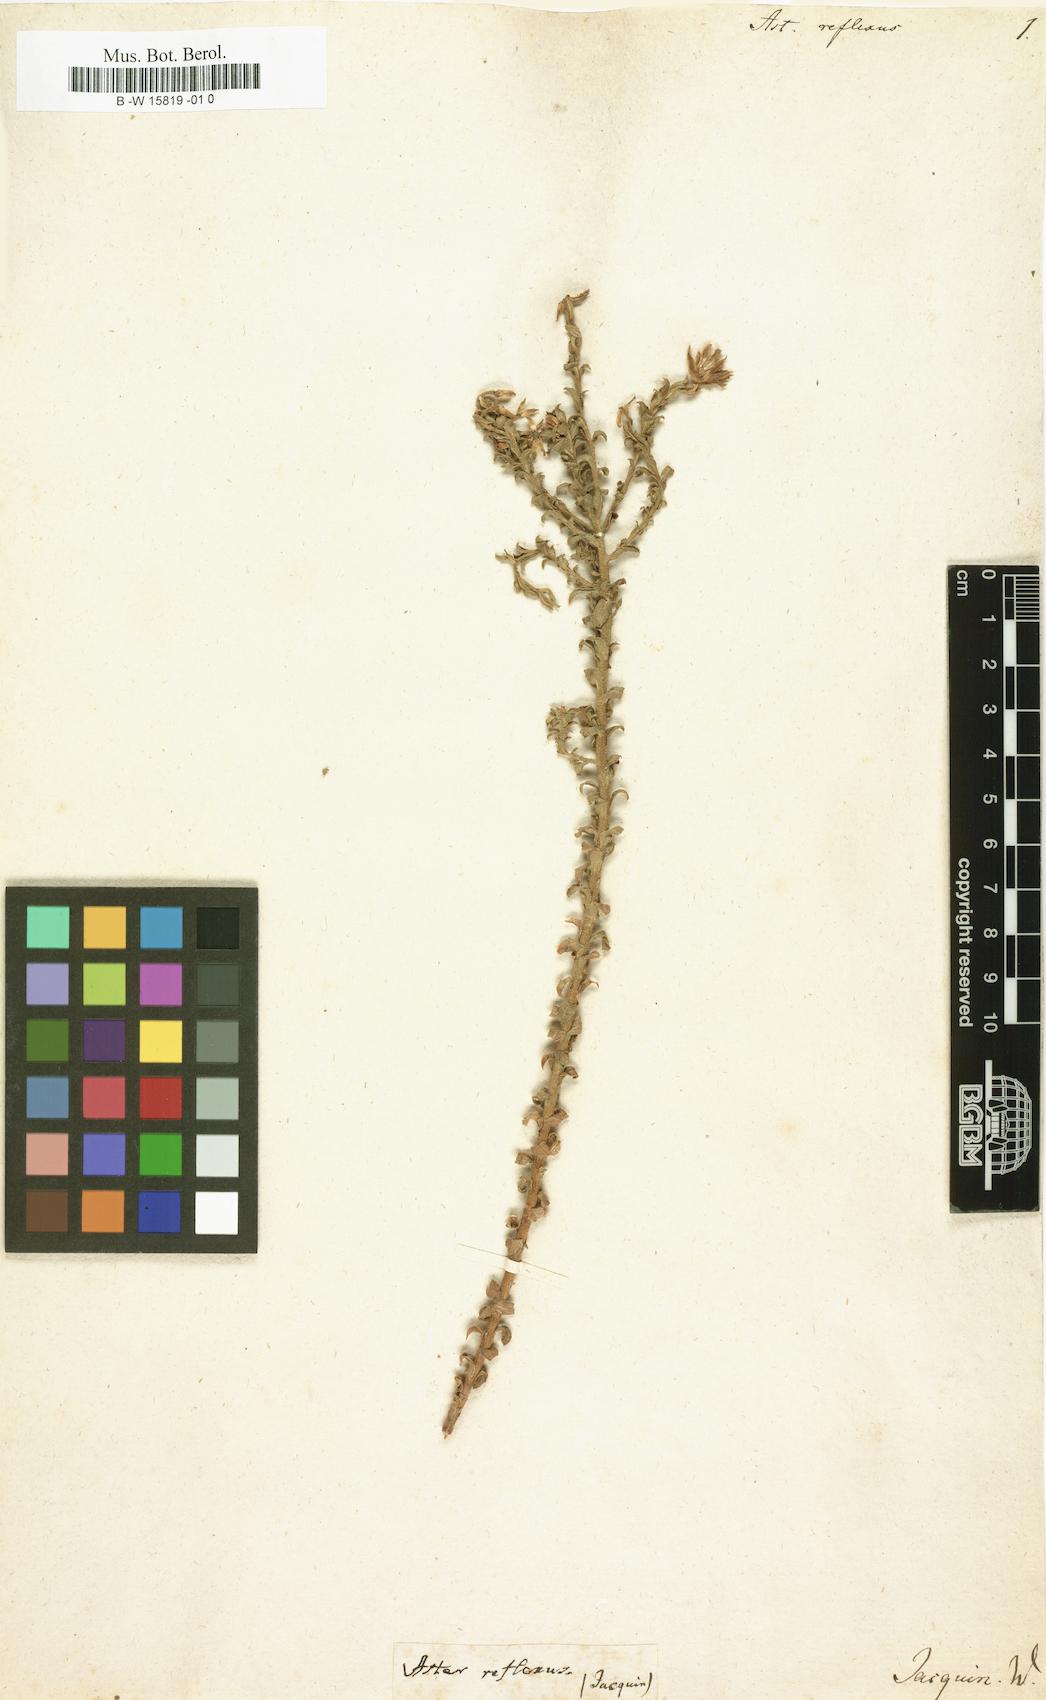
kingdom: Plantae
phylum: Tracheophyta
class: Magnoliopsida
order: Asterales
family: Asteraceae
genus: Polyarrhena
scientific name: Polyarrhena reflexa
